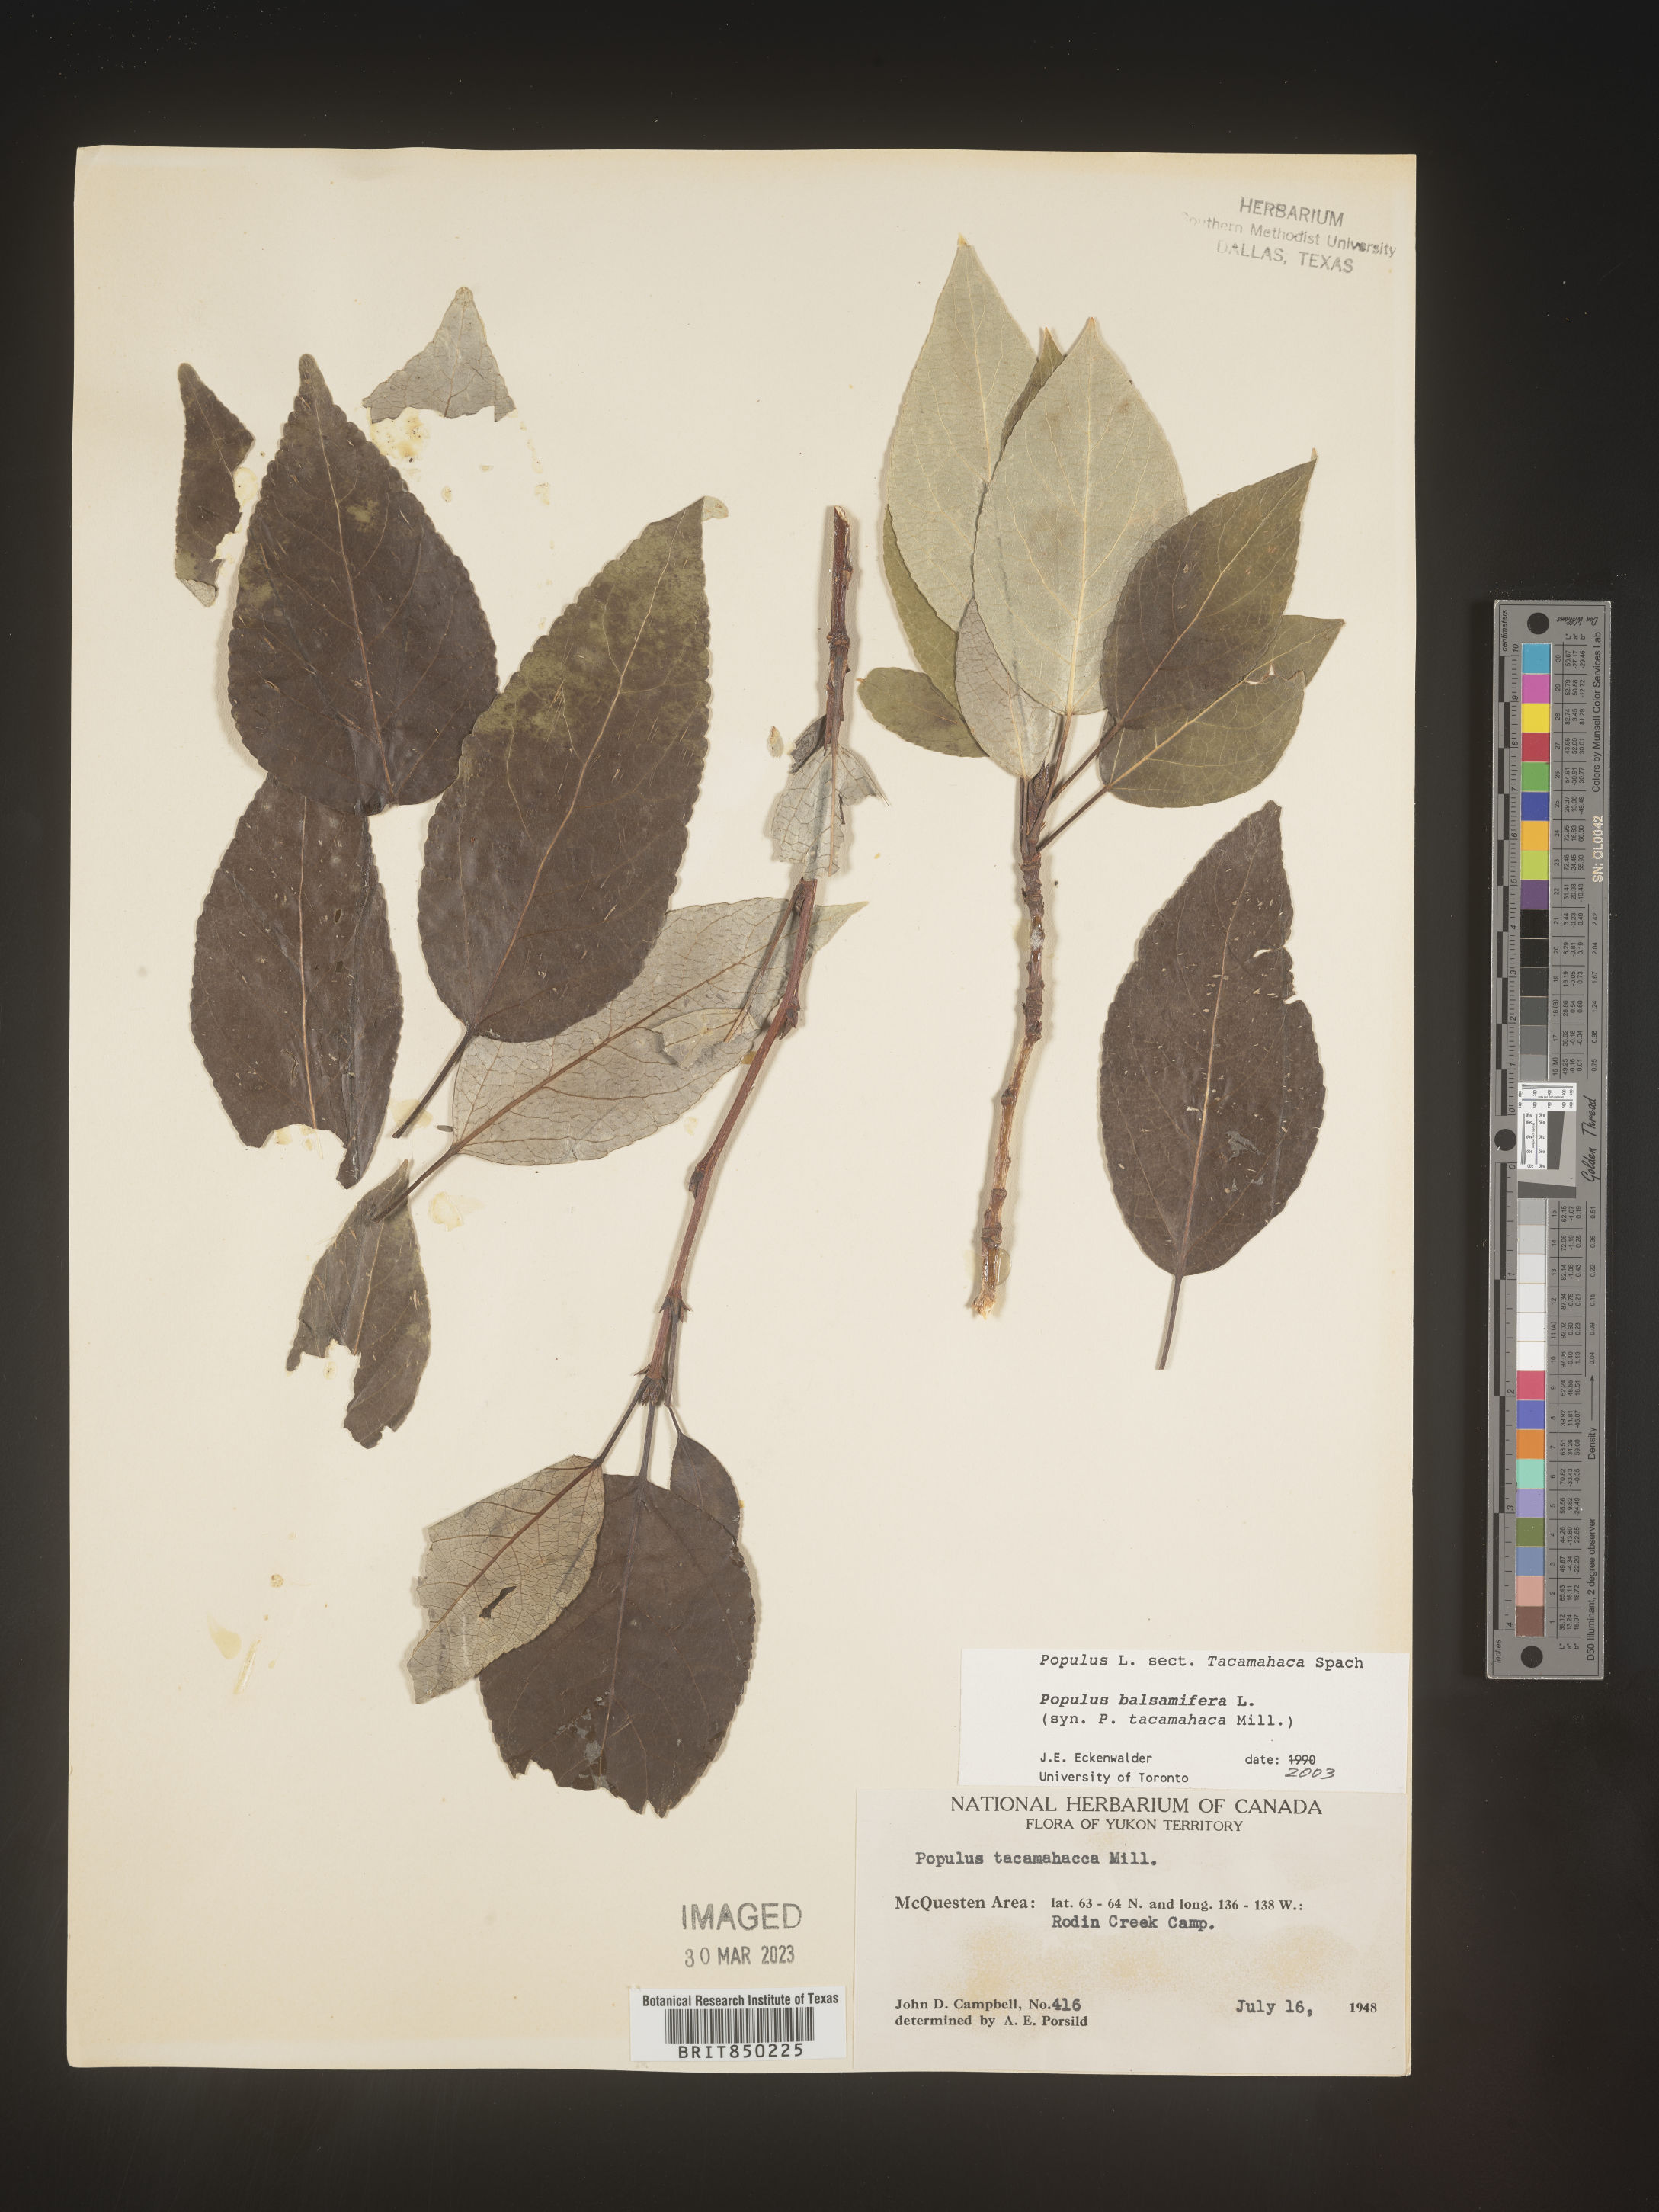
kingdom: Plantae
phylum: Tracheophyta
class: Magnoliopsida
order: Malpighiales
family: Salicaceae
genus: Populus
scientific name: Populus balsamifera
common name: Balsam poplar
